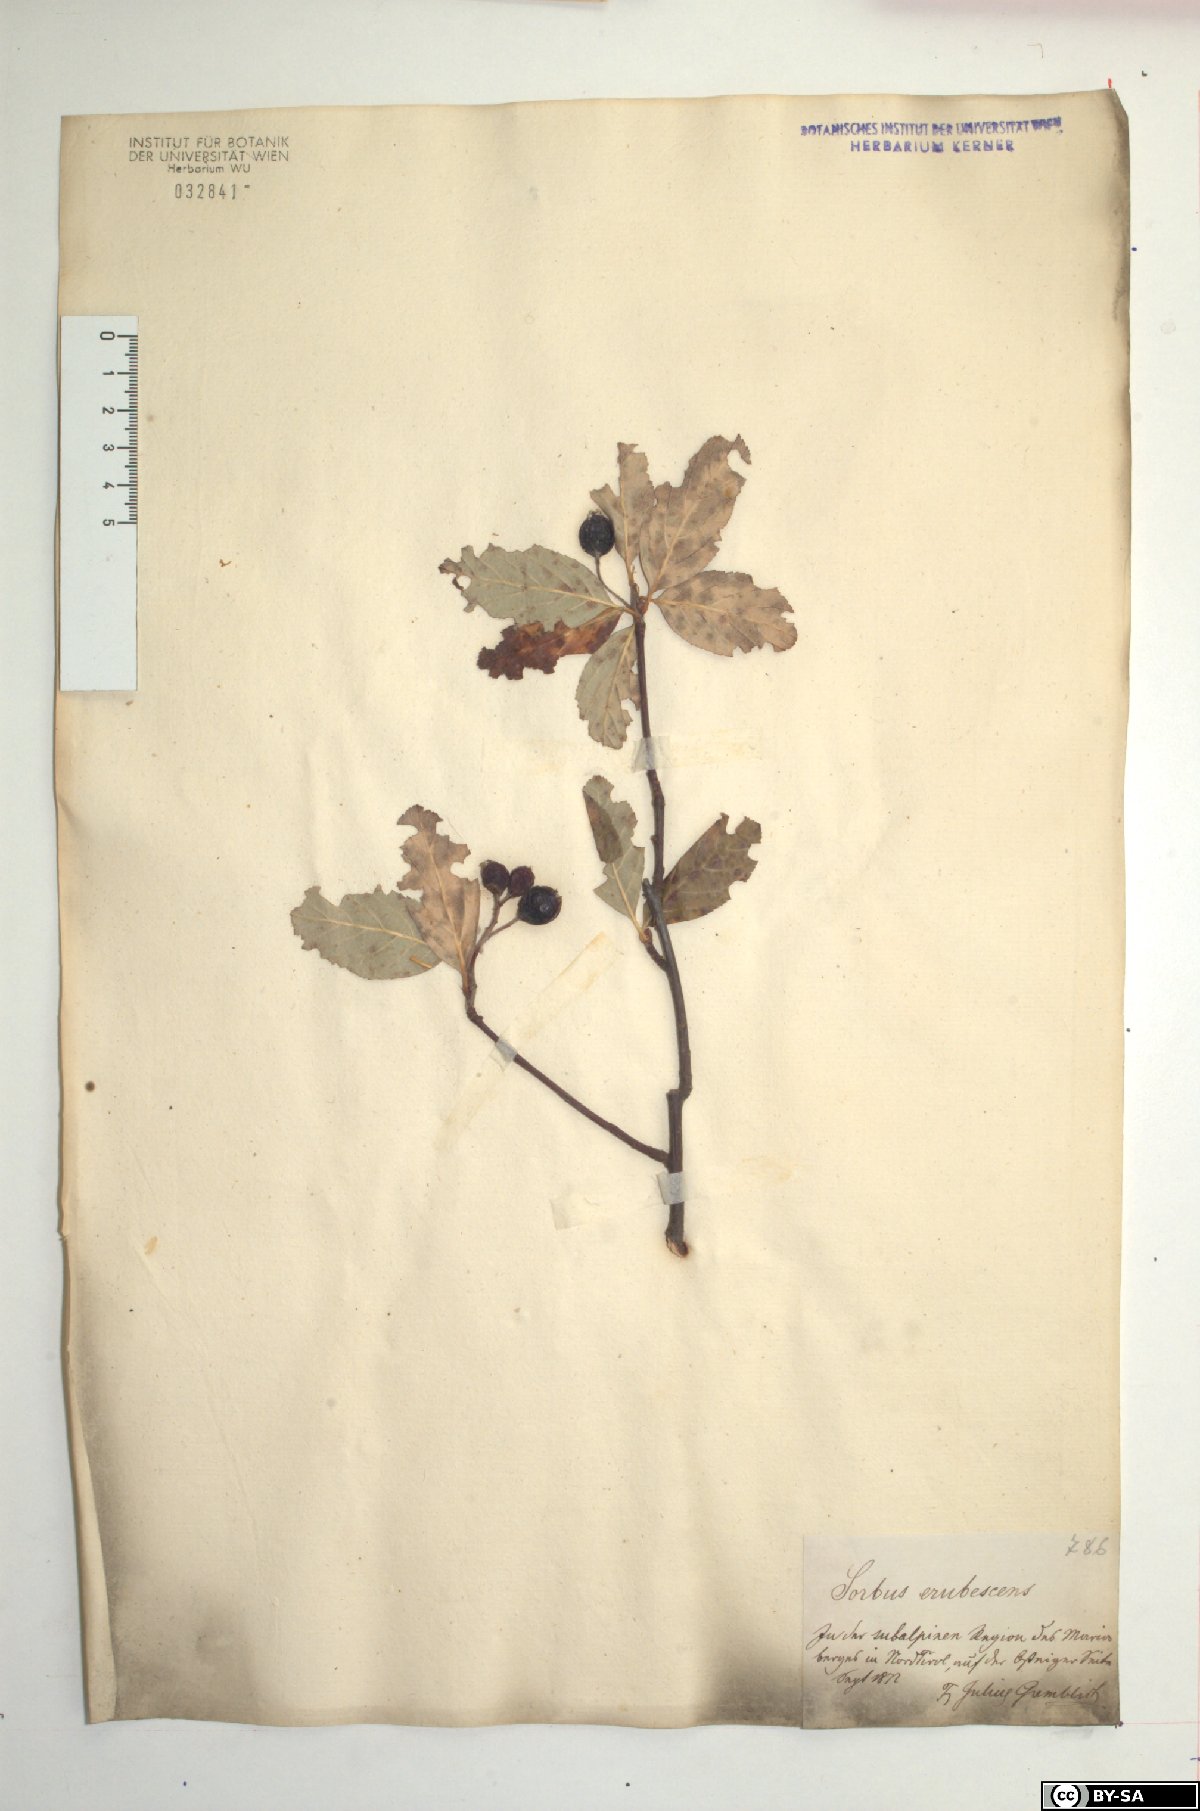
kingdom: Plantae
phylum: Tracheophyta
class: Magnoliopsida
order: Rosales
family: Rosaceae
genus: Majovskya
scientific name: Majovskya sudetica
